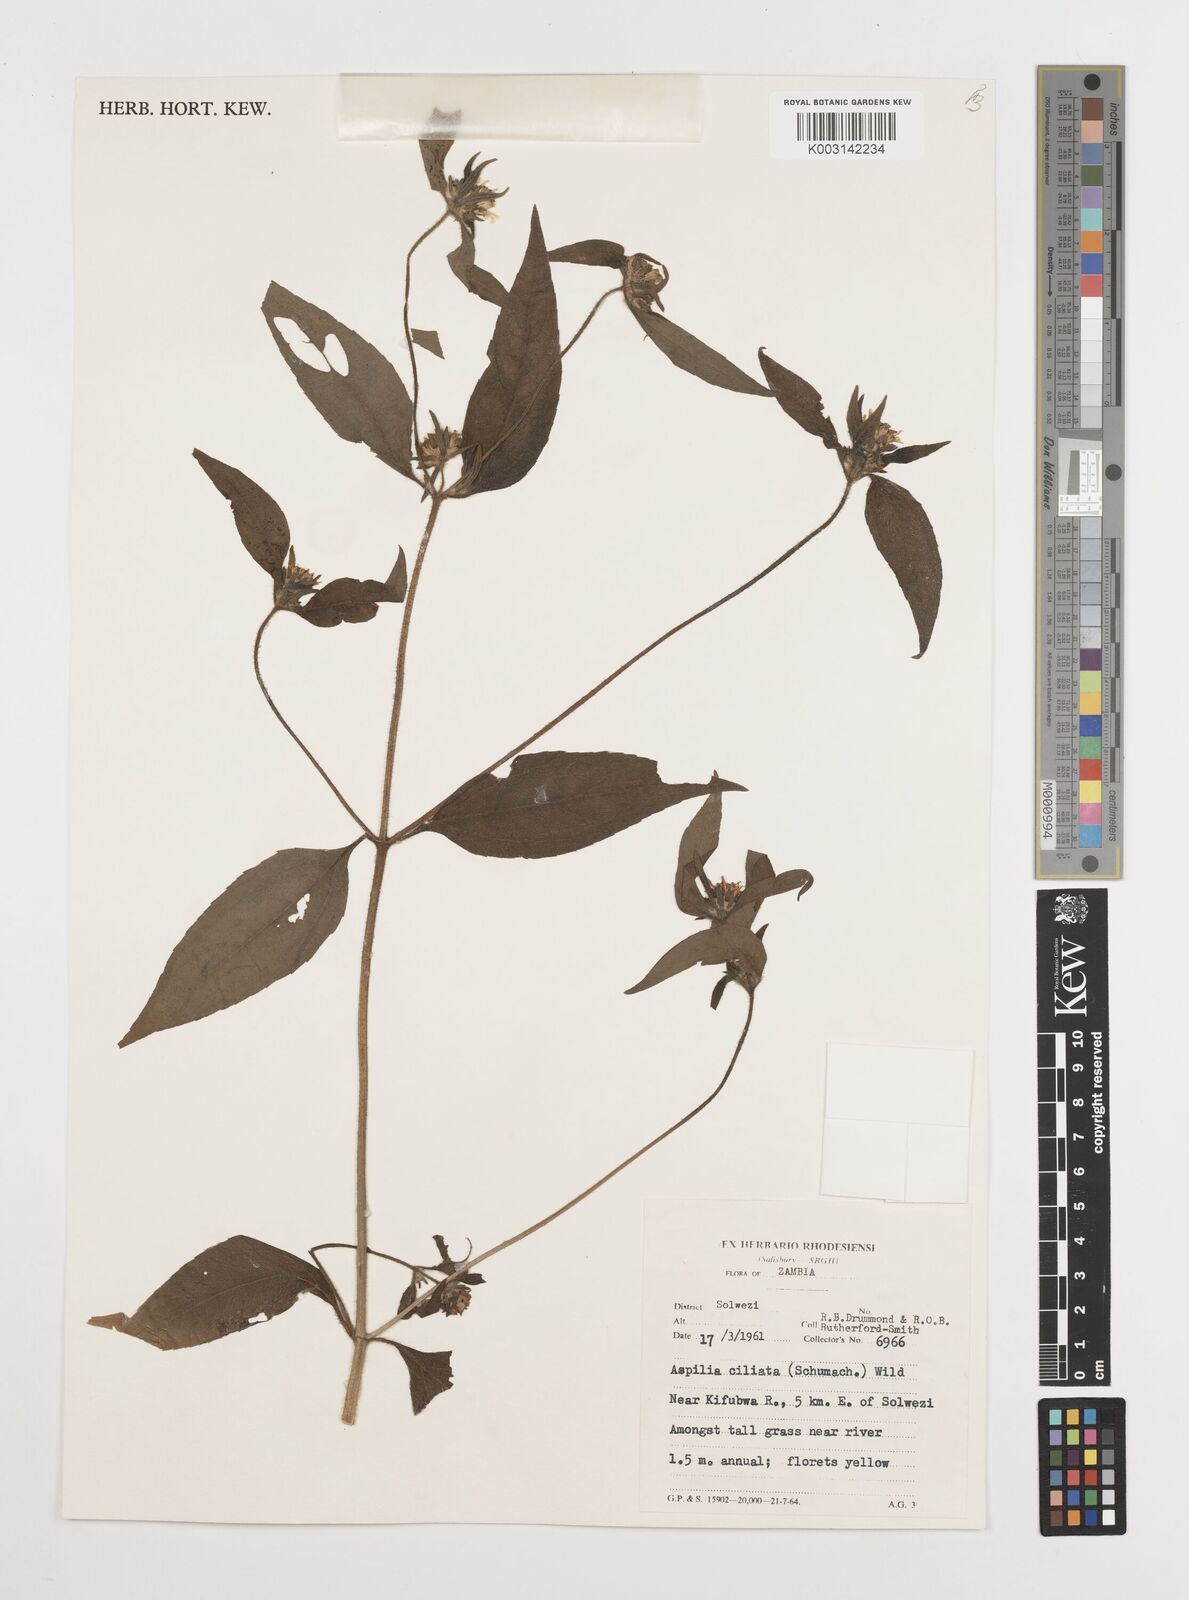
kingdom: Plantae
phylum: Tracheophyta
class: Magnoliopsida
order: Asterales
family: Asteraceae
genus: Aspilia
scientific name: Aspilia ciliata
